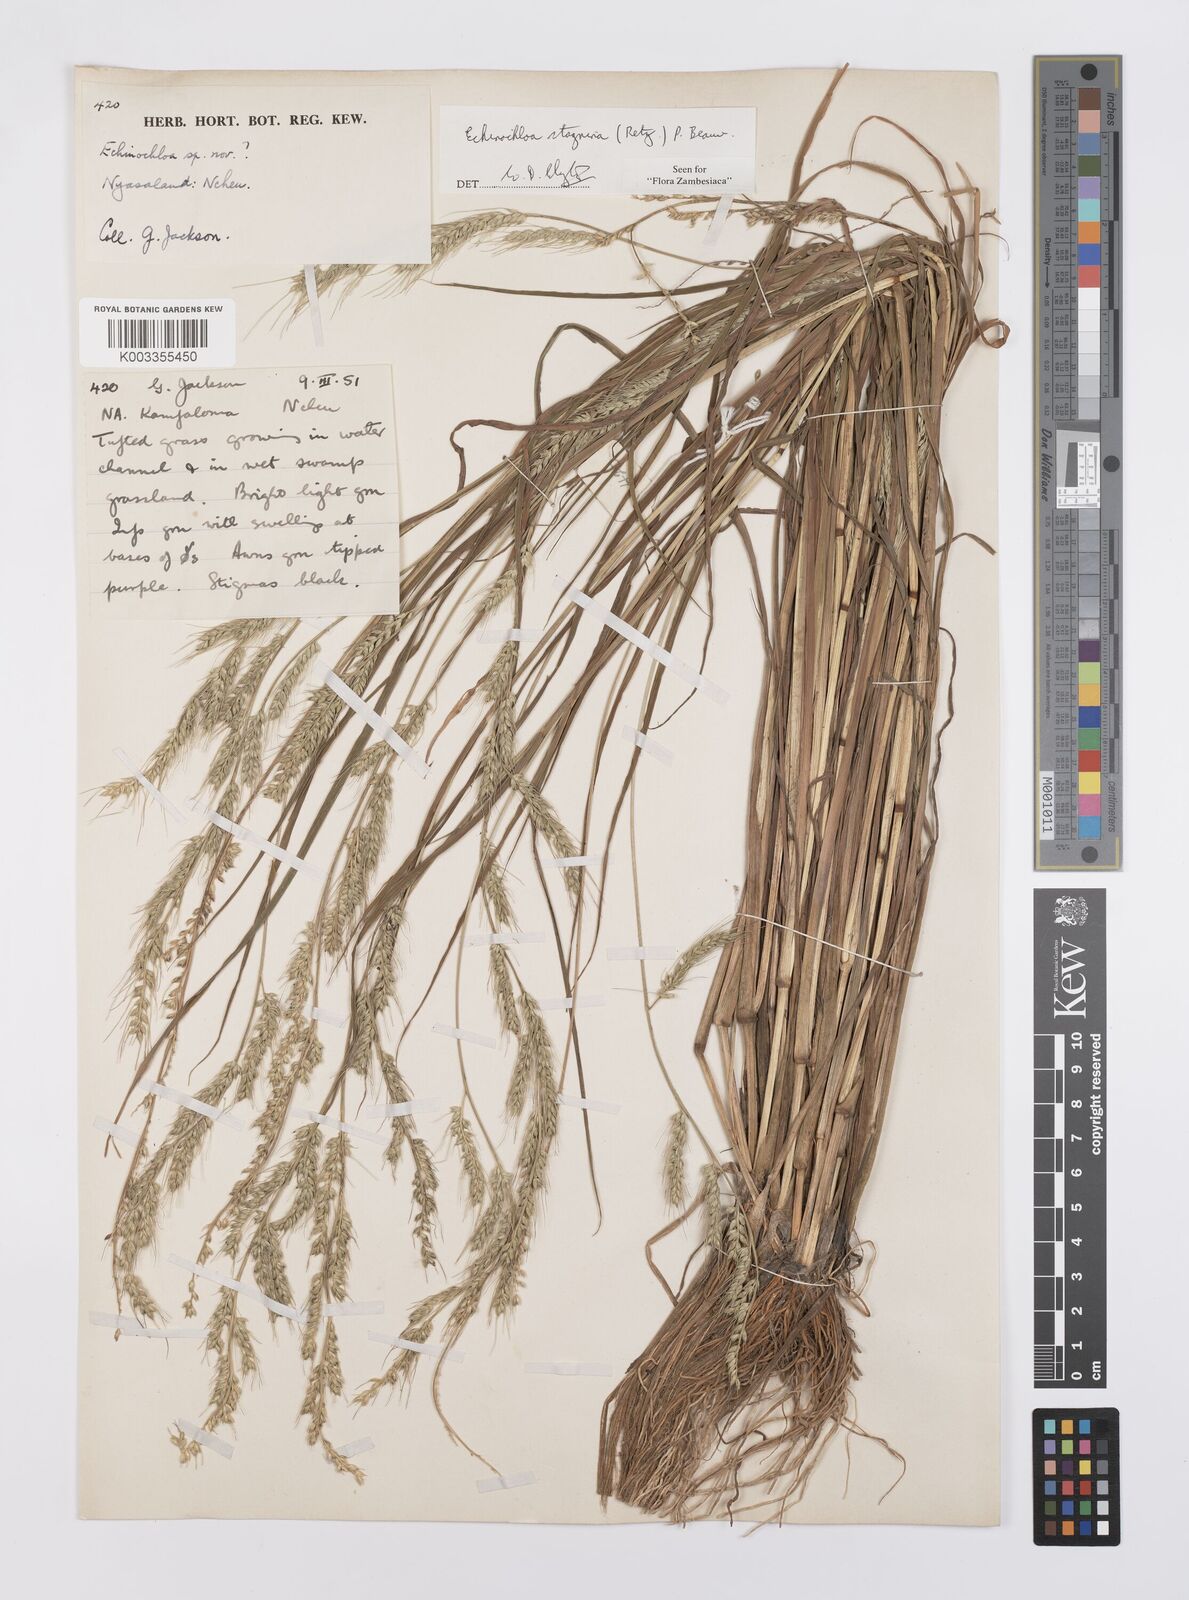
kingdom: Plantae
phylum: Tracheophyta
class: Liliopsida
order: Poales
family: Poaceae
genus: Echinochloa
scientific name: Echinochloa stagnina
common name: Burgu grass
